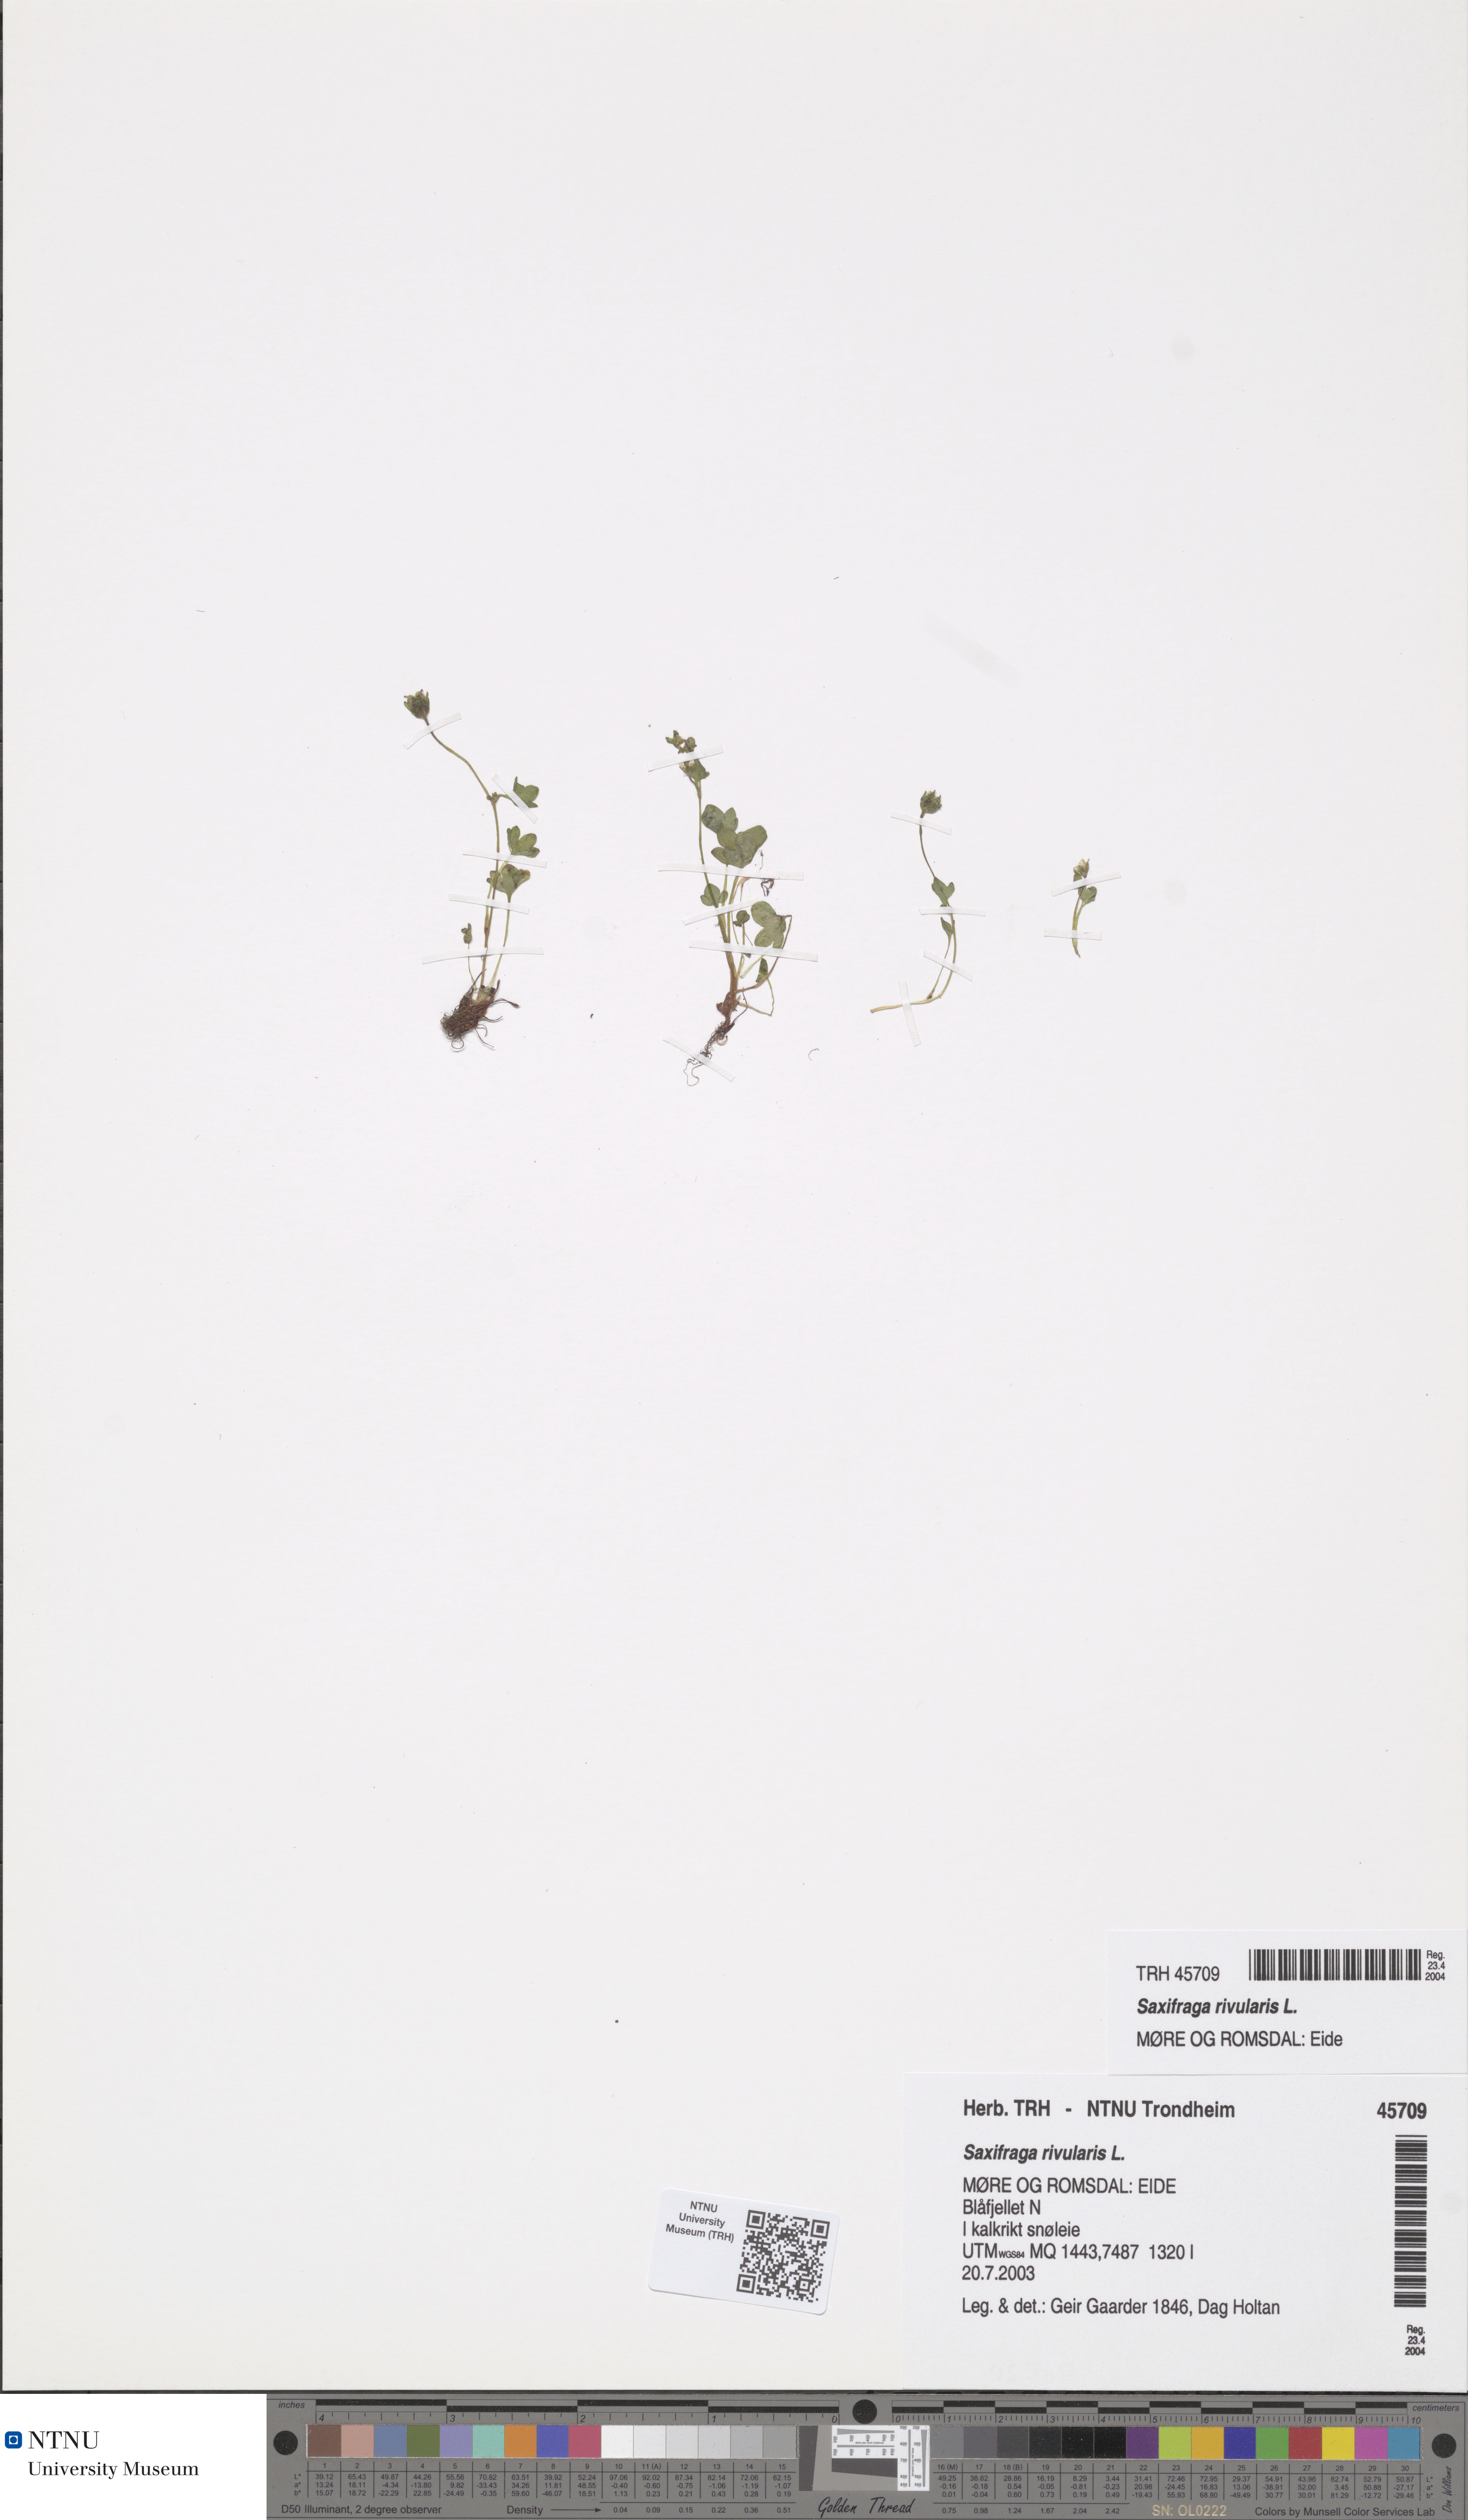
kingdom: Plantae
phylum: Tracheophyta
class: Magnoliopsida
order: Saxifragales
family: Saxifragaceae
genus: Saxifraga
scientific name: Saxifraga rivularis
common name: Highland saxifrage
